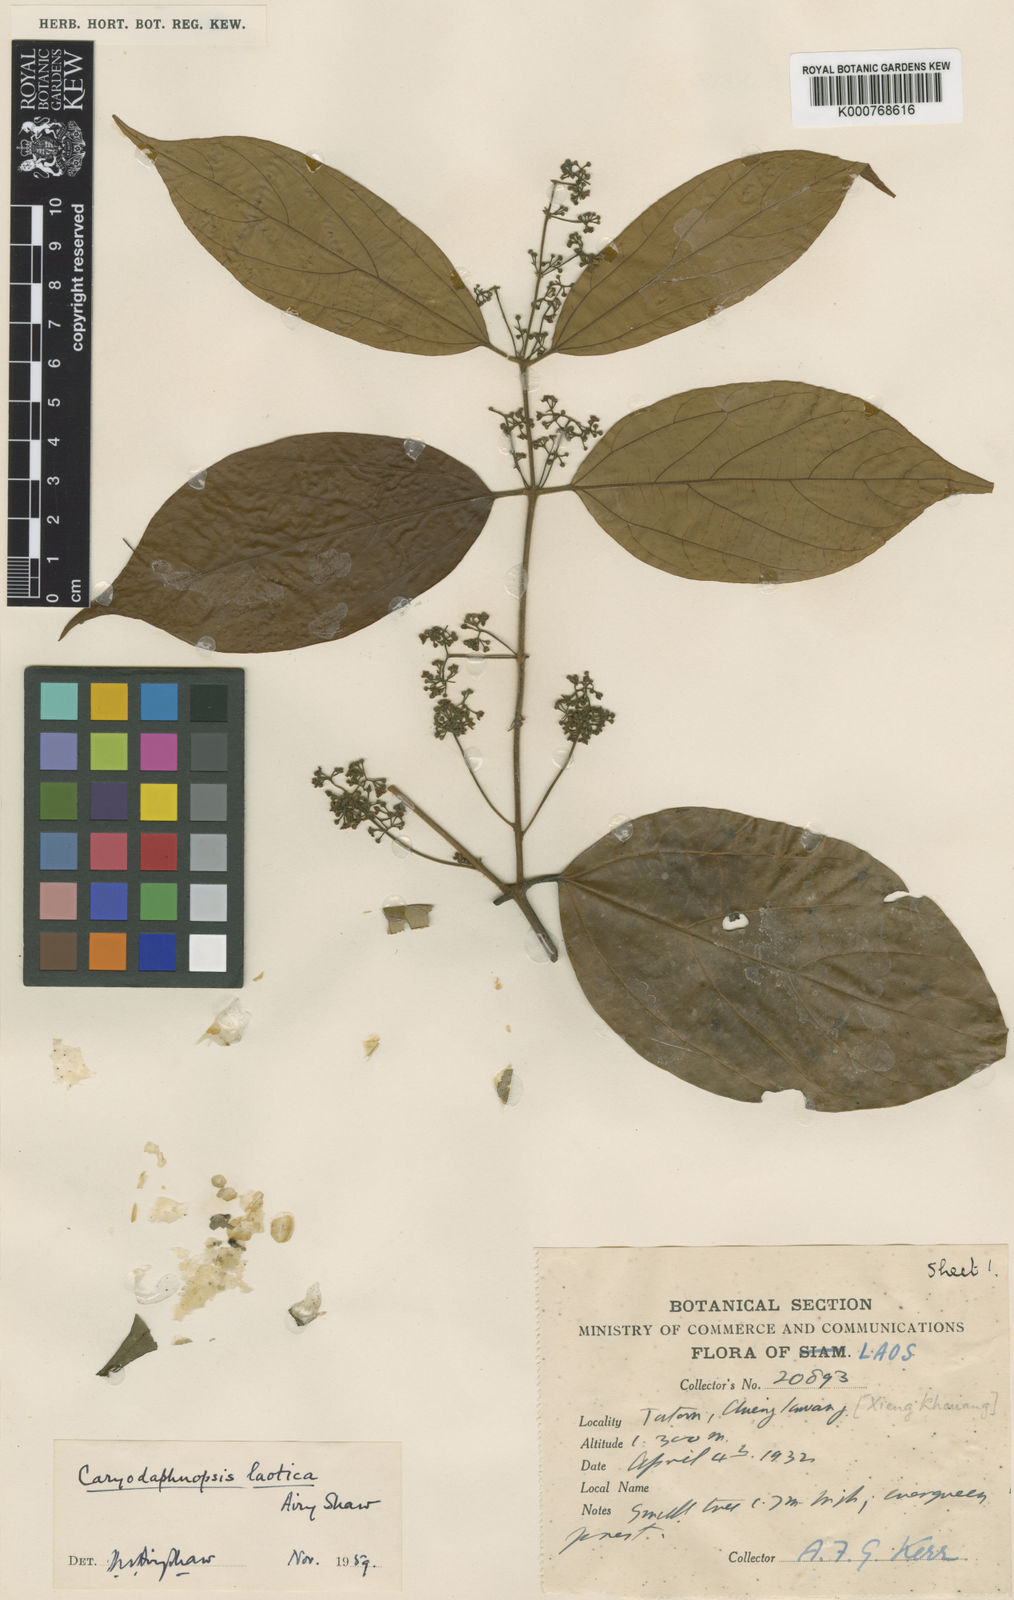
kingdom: Plantae
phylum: Tracheophyta
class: Magnoliopsida
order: Laurales
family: Lauraceae
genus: Caryodaphnopsis
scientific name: Caryodaphnopsis laotica
